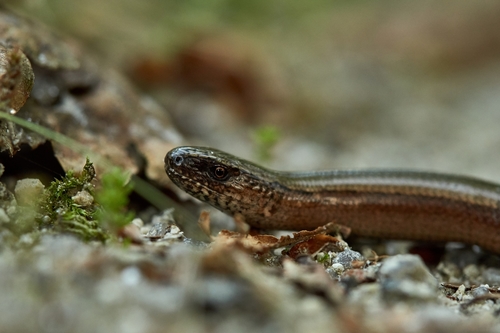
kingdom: Animalia
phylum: Chordata
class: Squamata
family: Anguidae
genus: Anguis
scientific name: Anguis fragilis
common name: Slow worm
